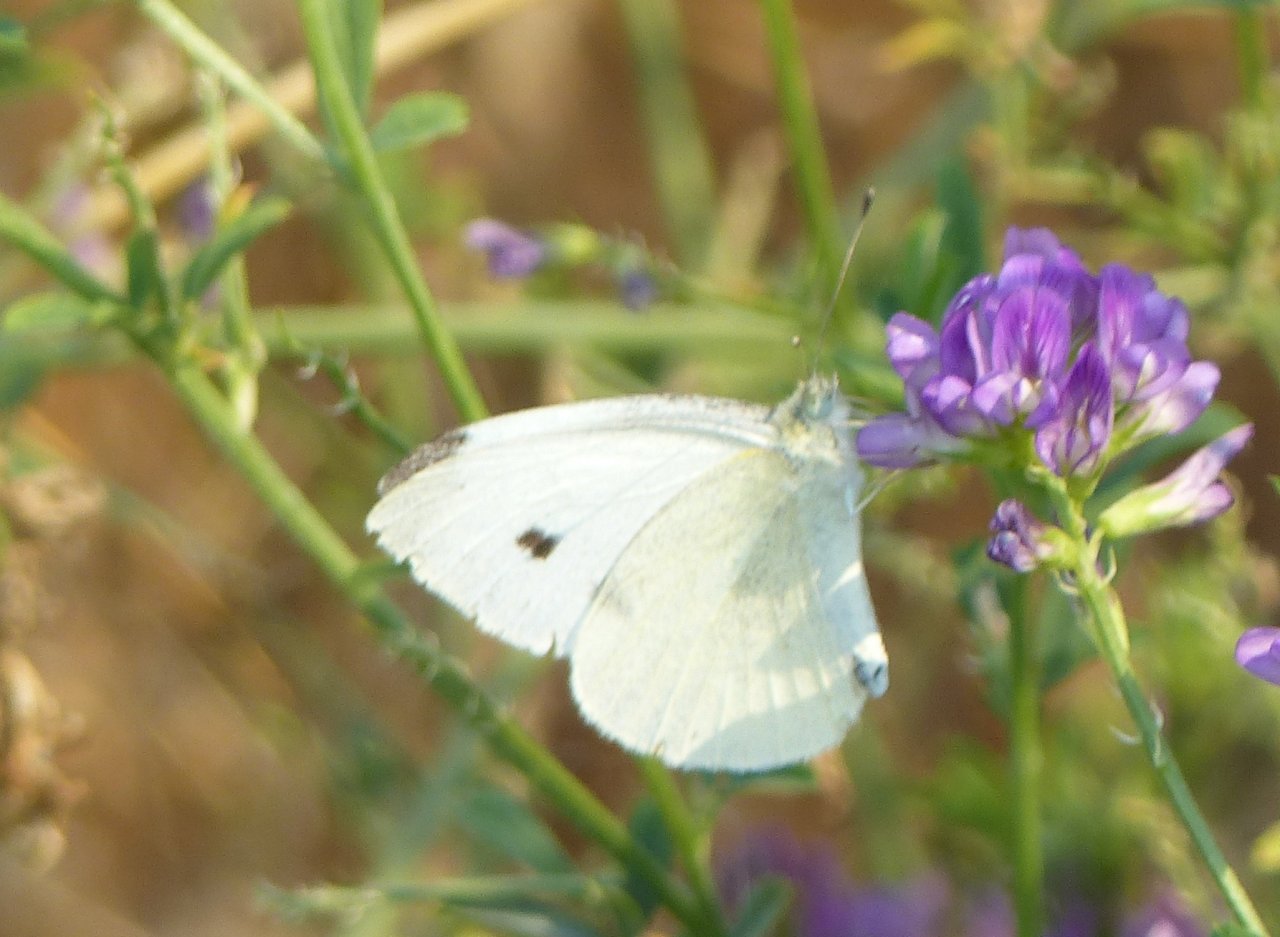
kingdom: Animalia
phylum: Arthropoda
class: Insecta
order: Lepidoptera
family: Pieridae
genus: Pieris
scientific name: Pieris rapae
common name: Cabbage White
